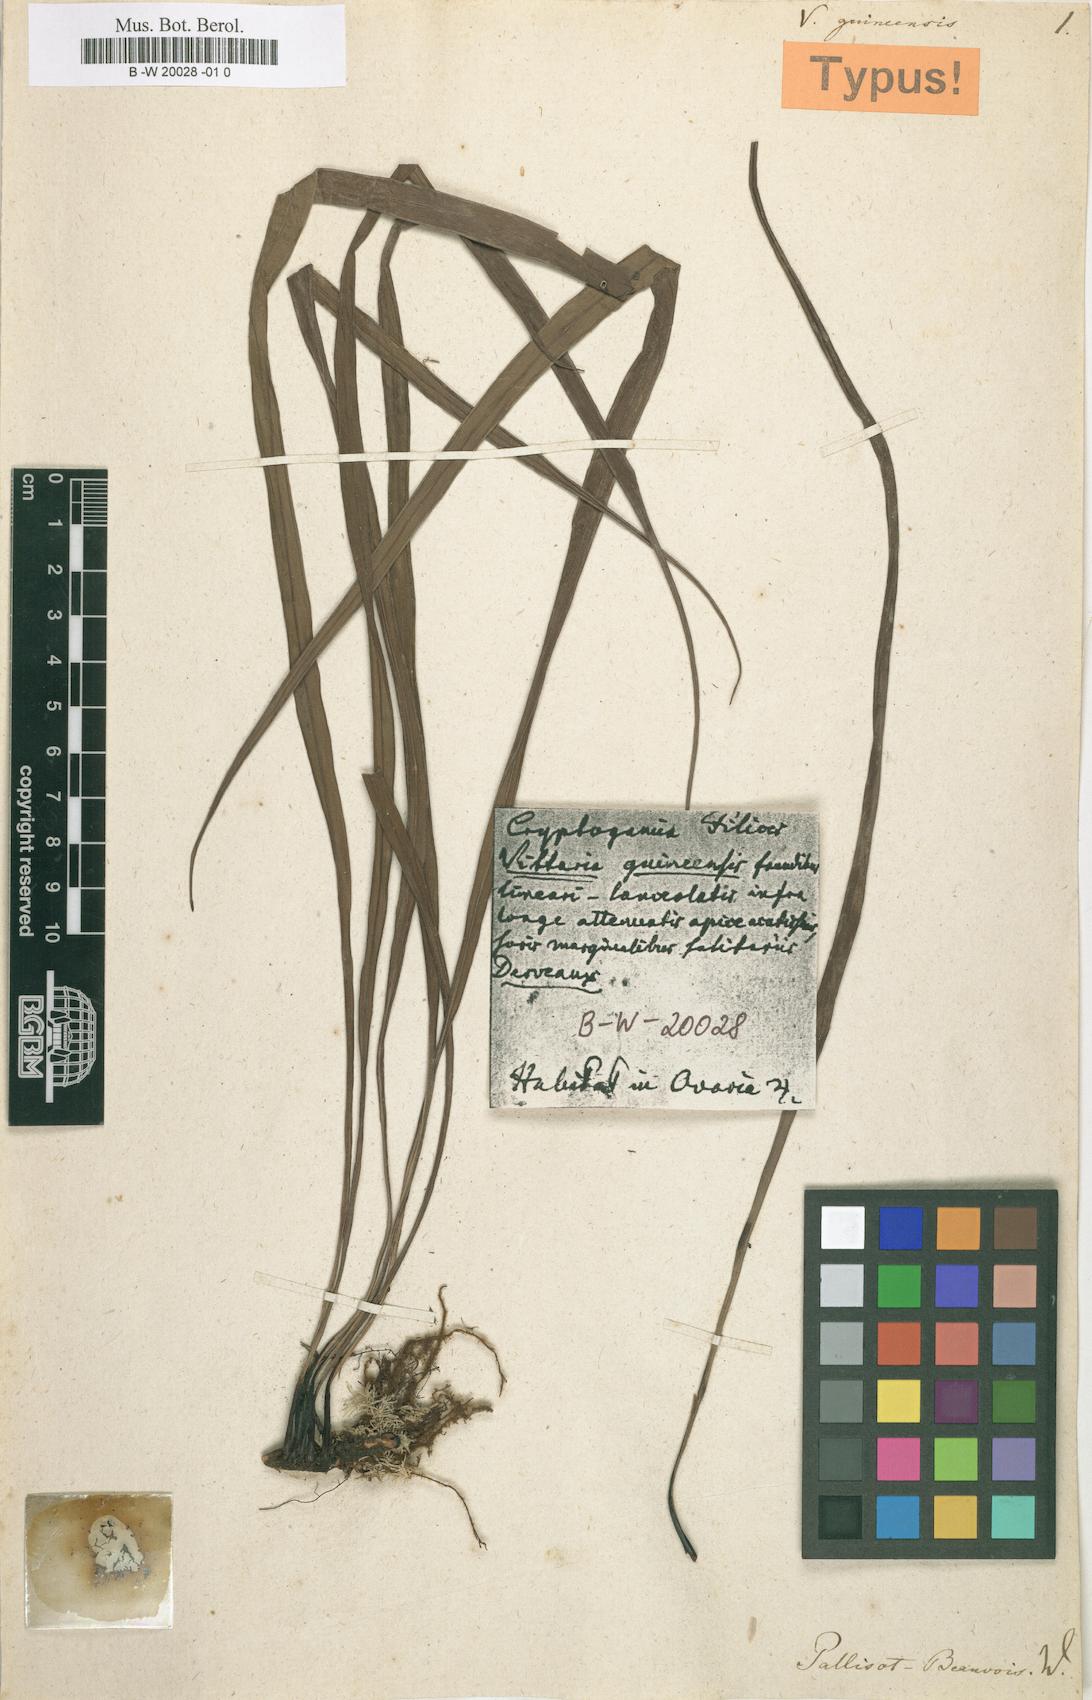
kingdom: Plantae
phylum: Tracheophyta
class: Polypodiopsida
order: Polypodiales
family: Pteridaceae
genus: Haplopteris
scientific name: Haplopteris guineensis
